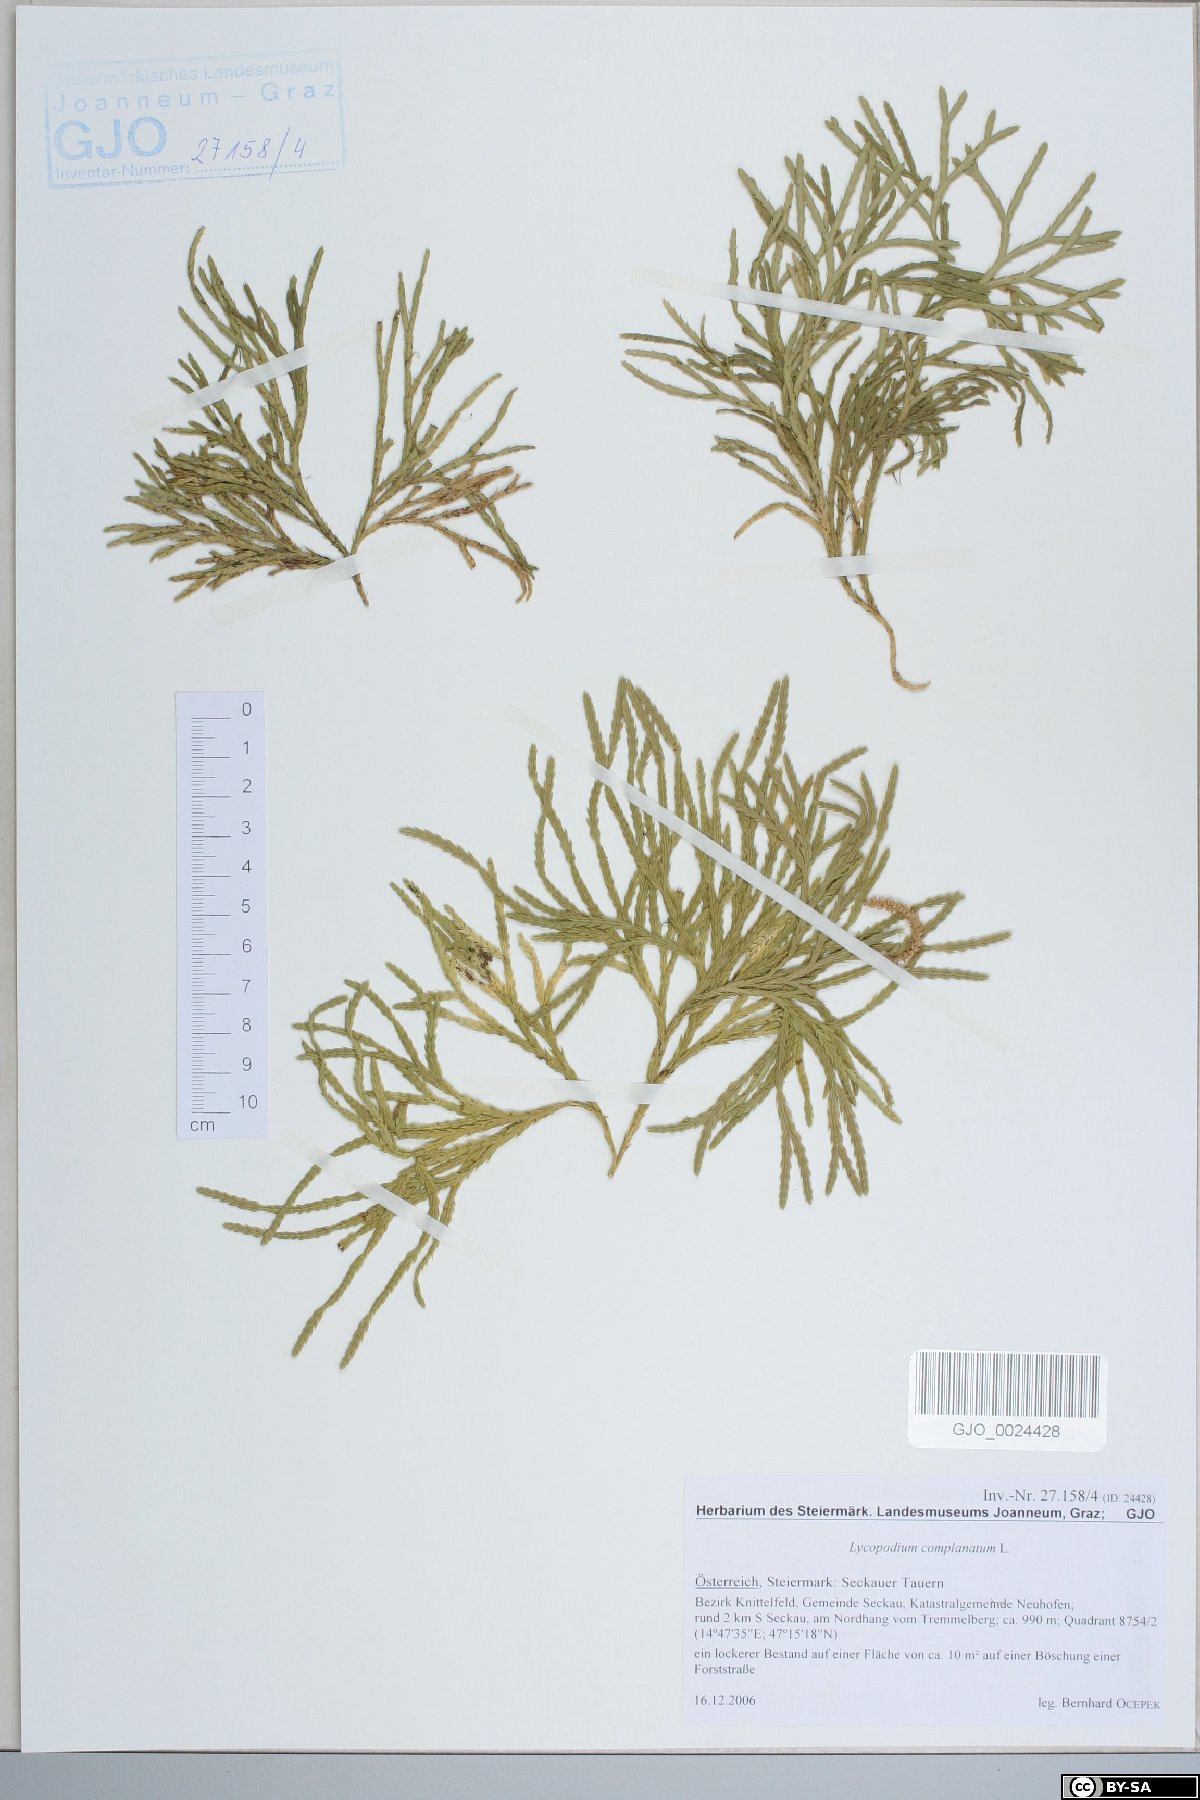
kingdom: Plantae
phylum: Tracheophyta
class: Lycopodiopsida
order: Lycopodiales
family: Lycopodiaceae
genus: Diphasiastrum
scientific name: Diphasiastrum complanatum
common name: Northern running-pine
